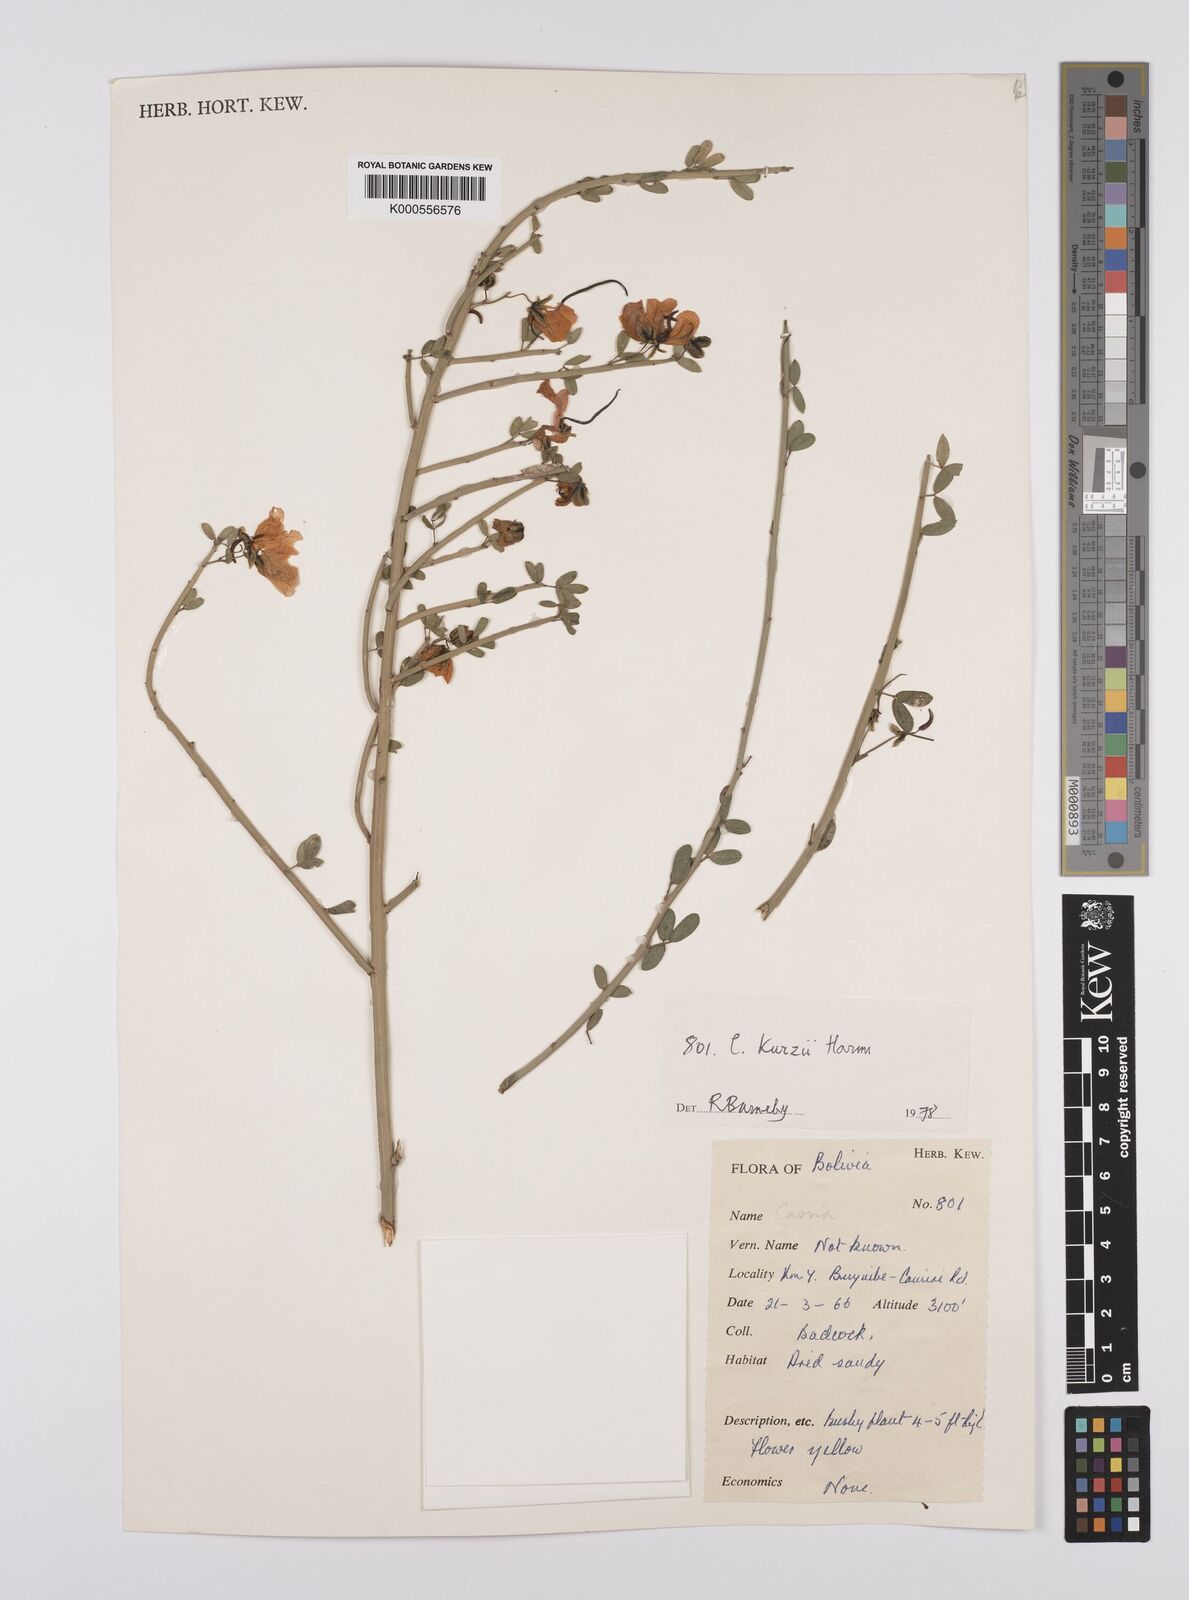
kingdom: Plantae
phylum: Tracheophyta
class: Magnoliopsida
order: Fabales
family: Fabaceae
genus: Senna
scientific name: Senna kurtzii
